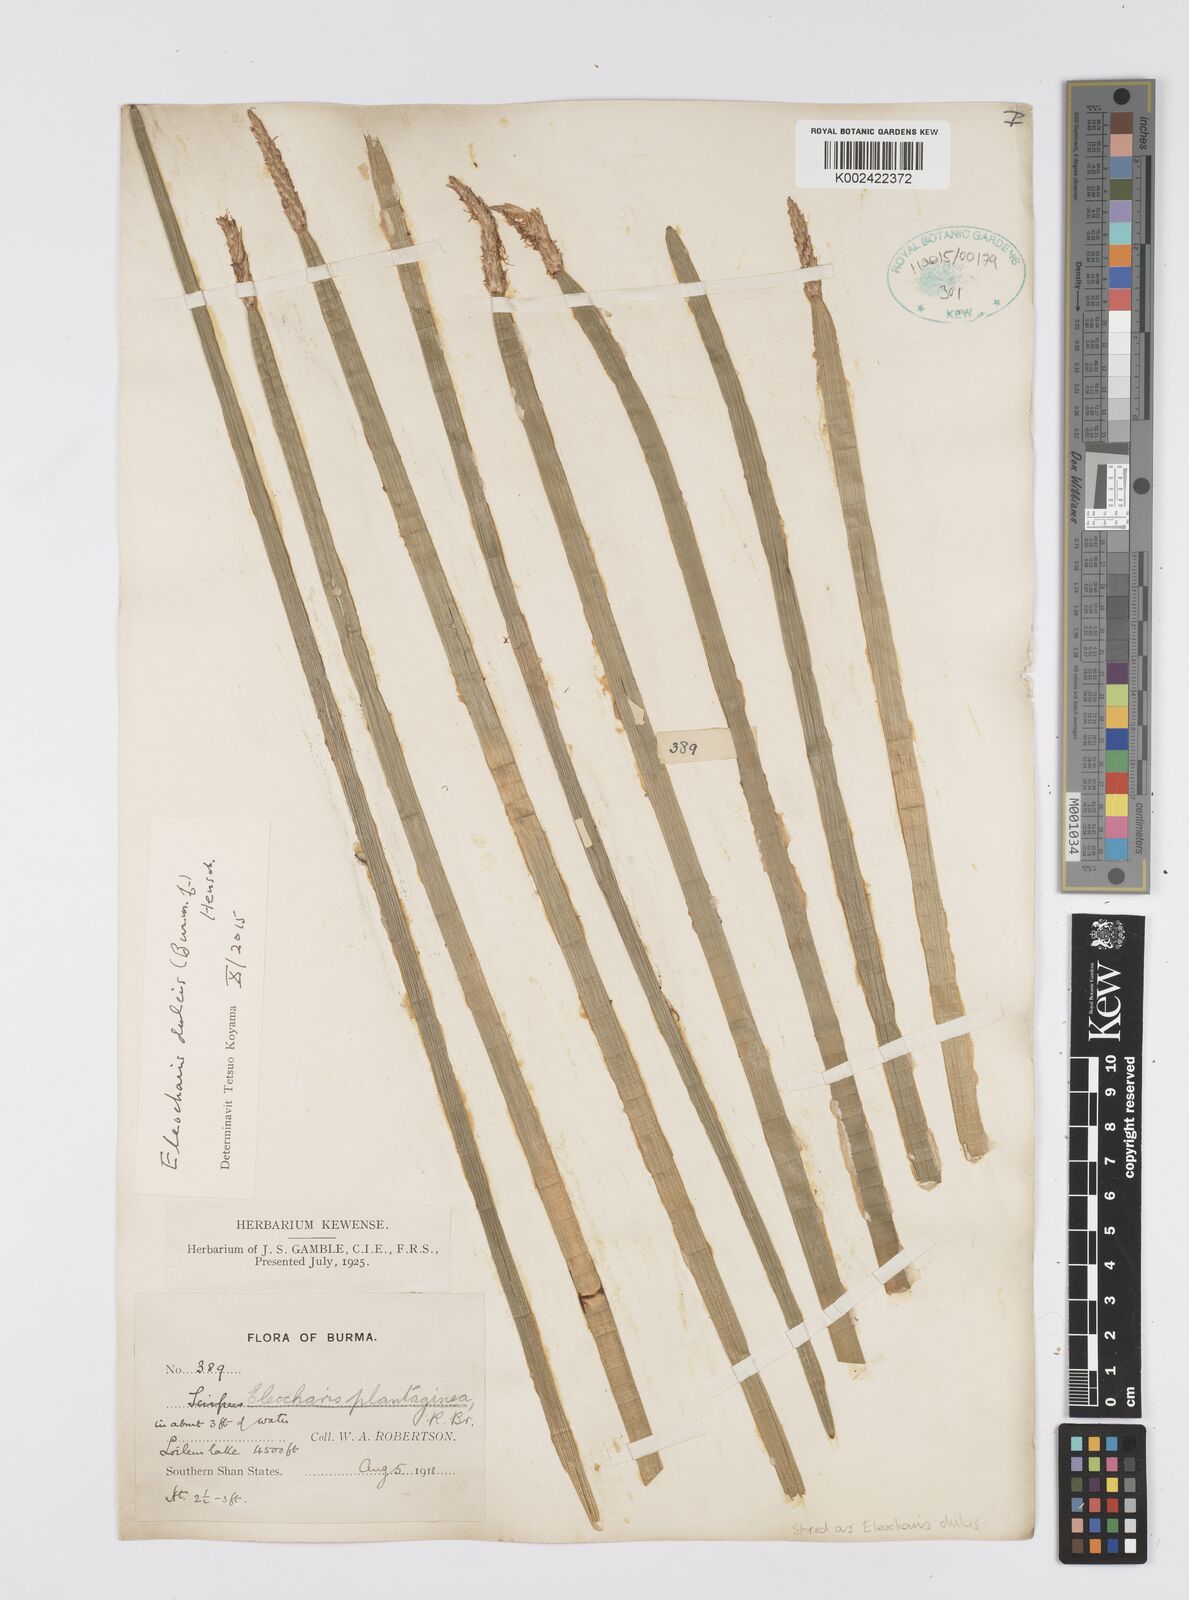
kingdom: Plantae
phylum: Tracheophyta
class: Liliopsida
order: Poales
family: Cyperaceae
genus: Eleocharis
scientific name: Eleocharis dulcis
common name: Chinese water chestnut
